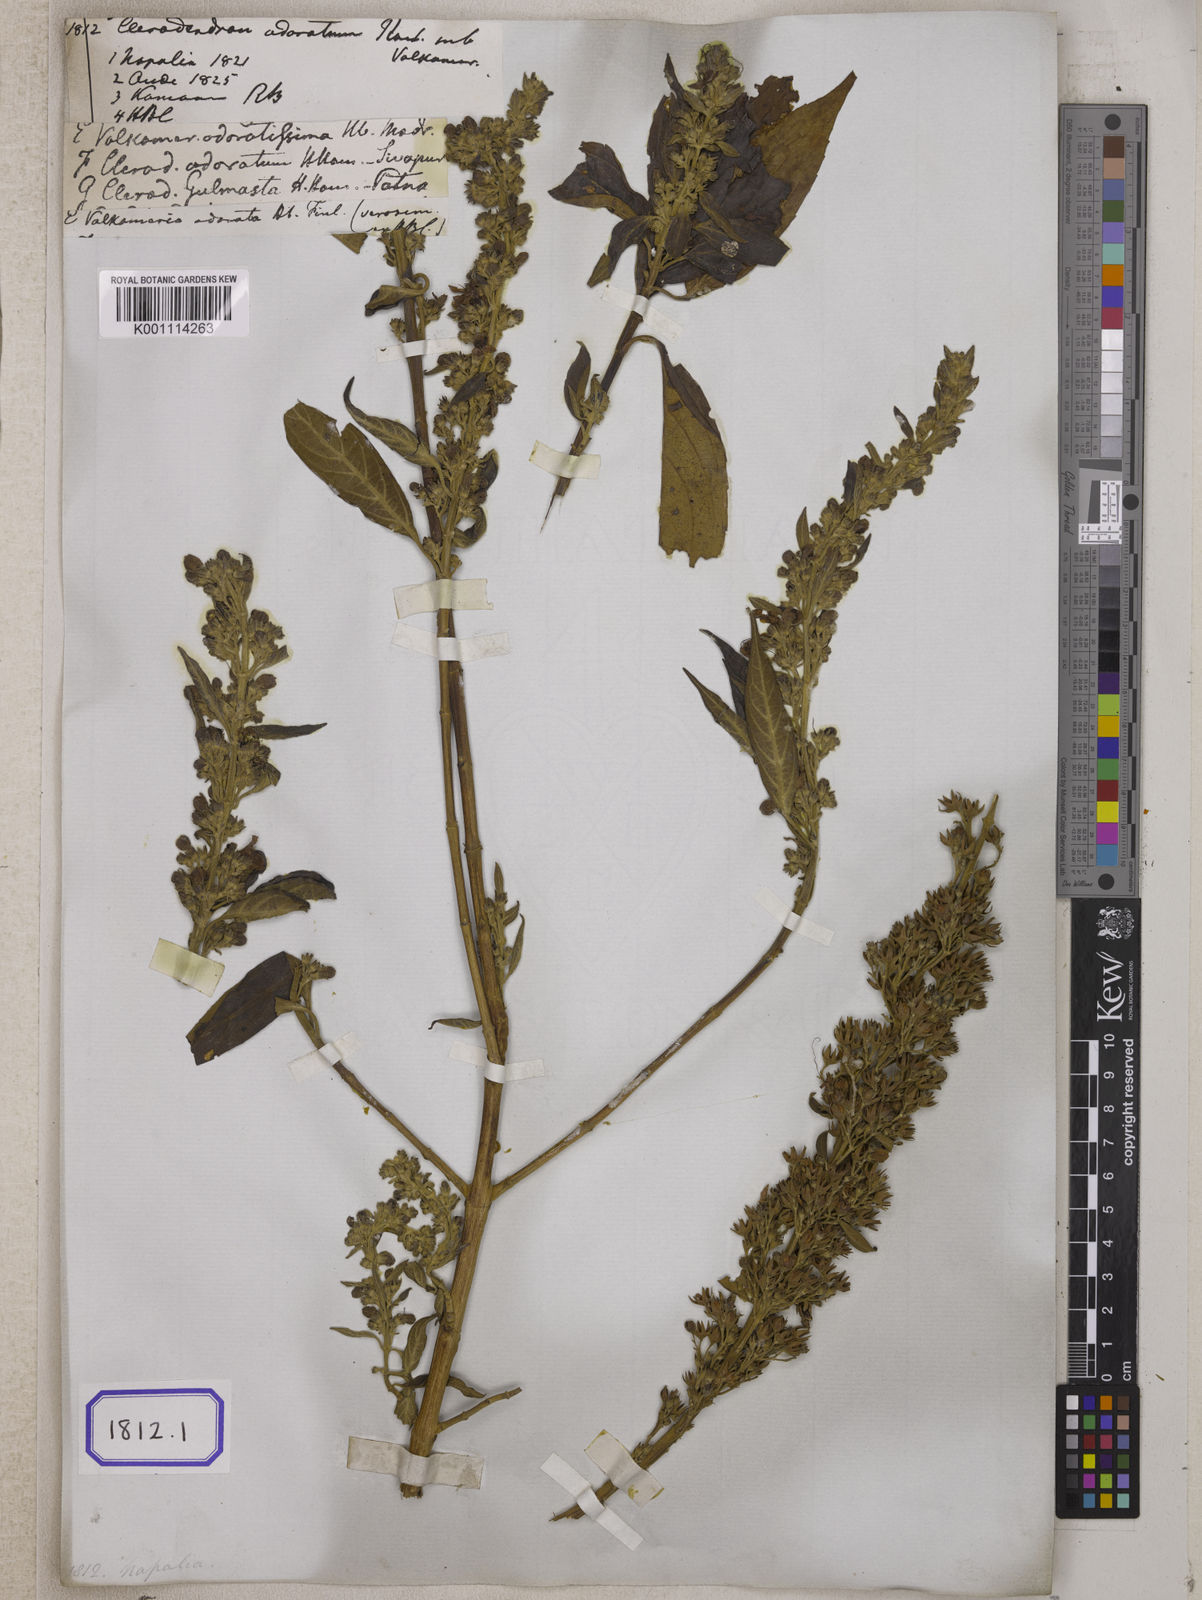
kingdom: Plantae
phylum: Tracheophyta
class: Magnoliopsida
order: Lamiales
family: Lamiaceae
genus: Clerodendrum
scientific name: Clerodendrum
